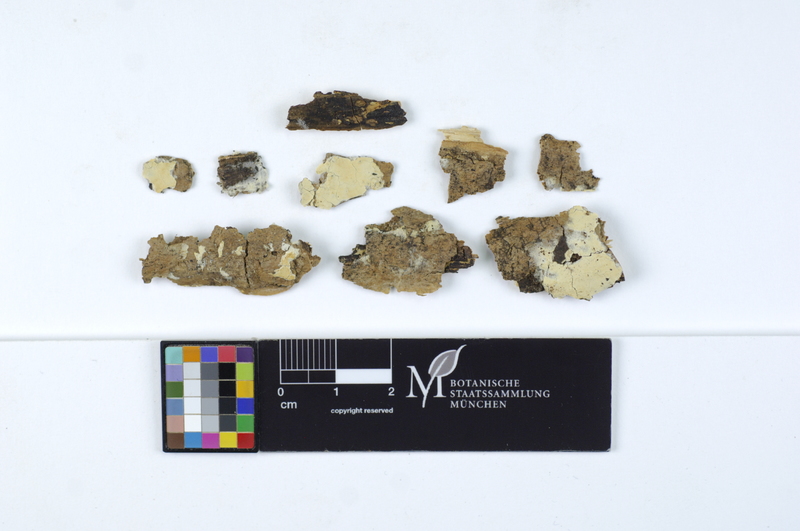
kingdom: Plantae
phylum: Tracheophyta
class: Magnoliopsida
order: Lamiales
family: Oleaceae
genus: Fraxinus
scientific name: Fraxinus
